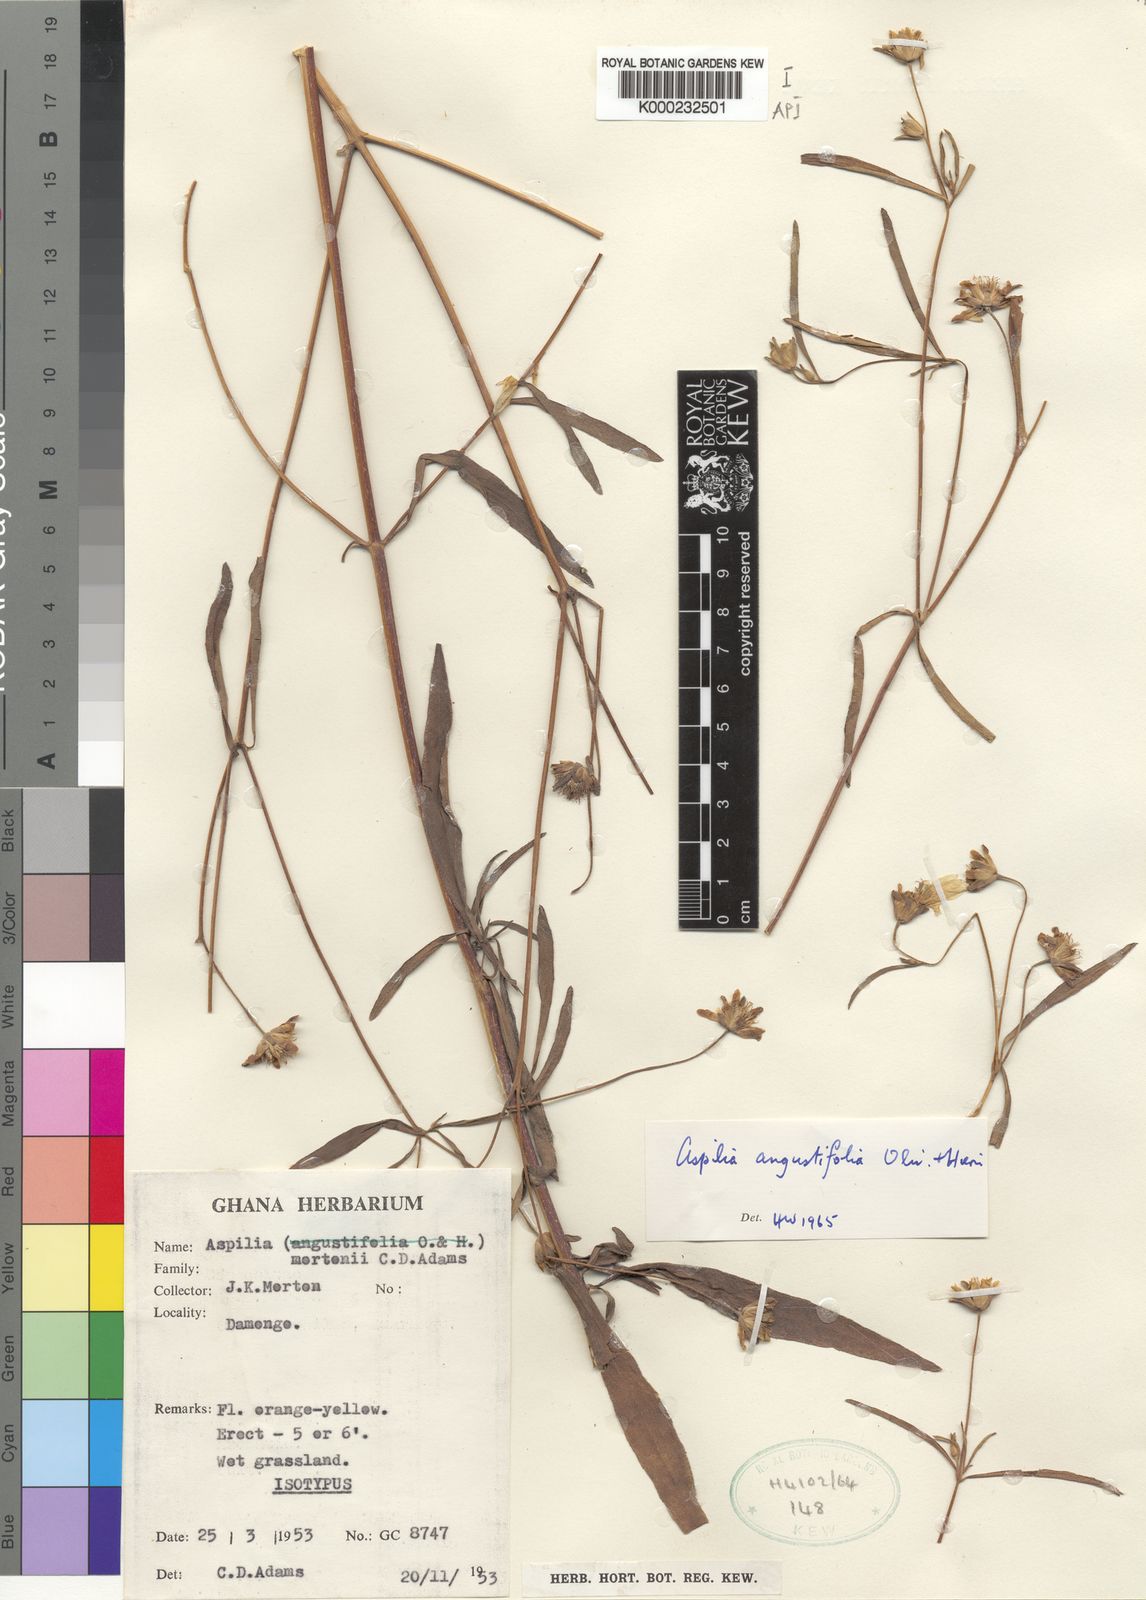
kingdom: Plantae
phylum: Tracheophyta
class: Magnoliopsida
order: Asterales
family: Asteraceae
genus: Aspilia
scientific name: Aspilia angustifolia
